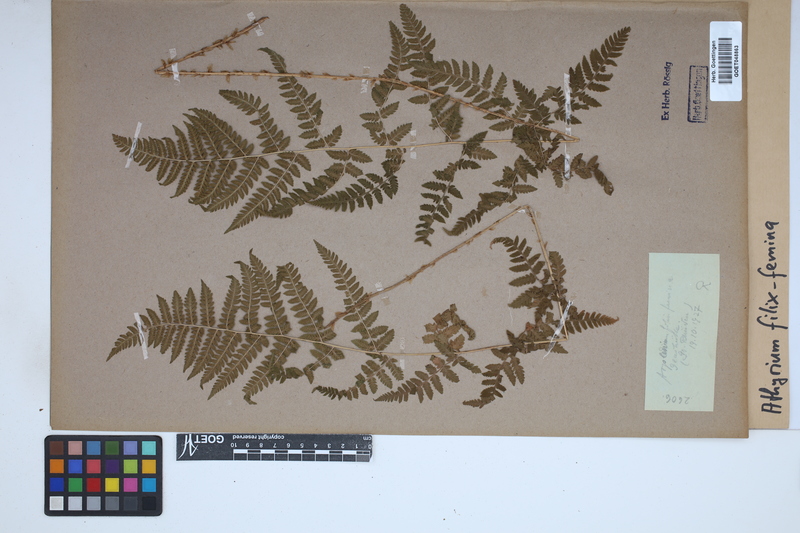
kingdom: Plantae
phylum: Tracheophyta
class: Polypodiopsida
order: Polypodiales
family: Athyriaceae
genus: Athyrium
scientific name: Athyrium filix-femina
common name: Lady fern
